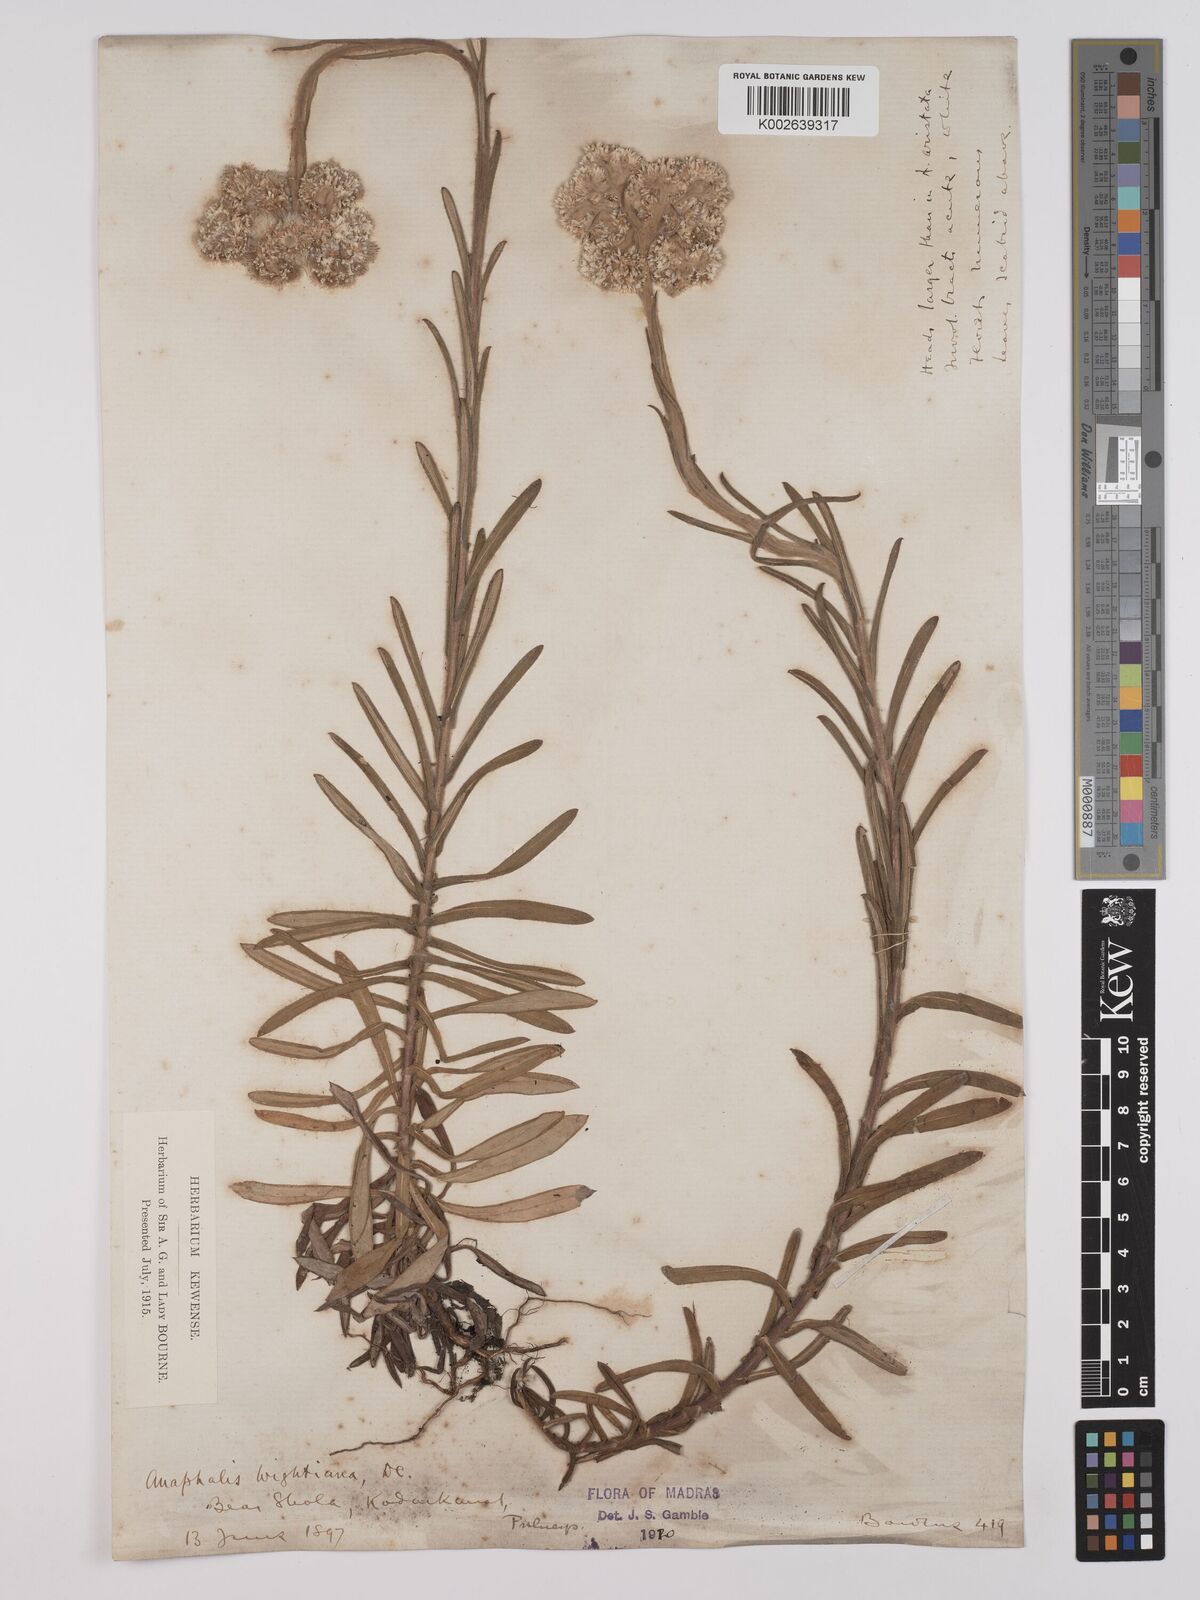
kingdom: Plantae
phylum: Tracheophyta
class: Magnoliopsida
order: Asterales
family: Asteraceae
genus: Anaphalis
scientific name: Anaphalis wightiana
